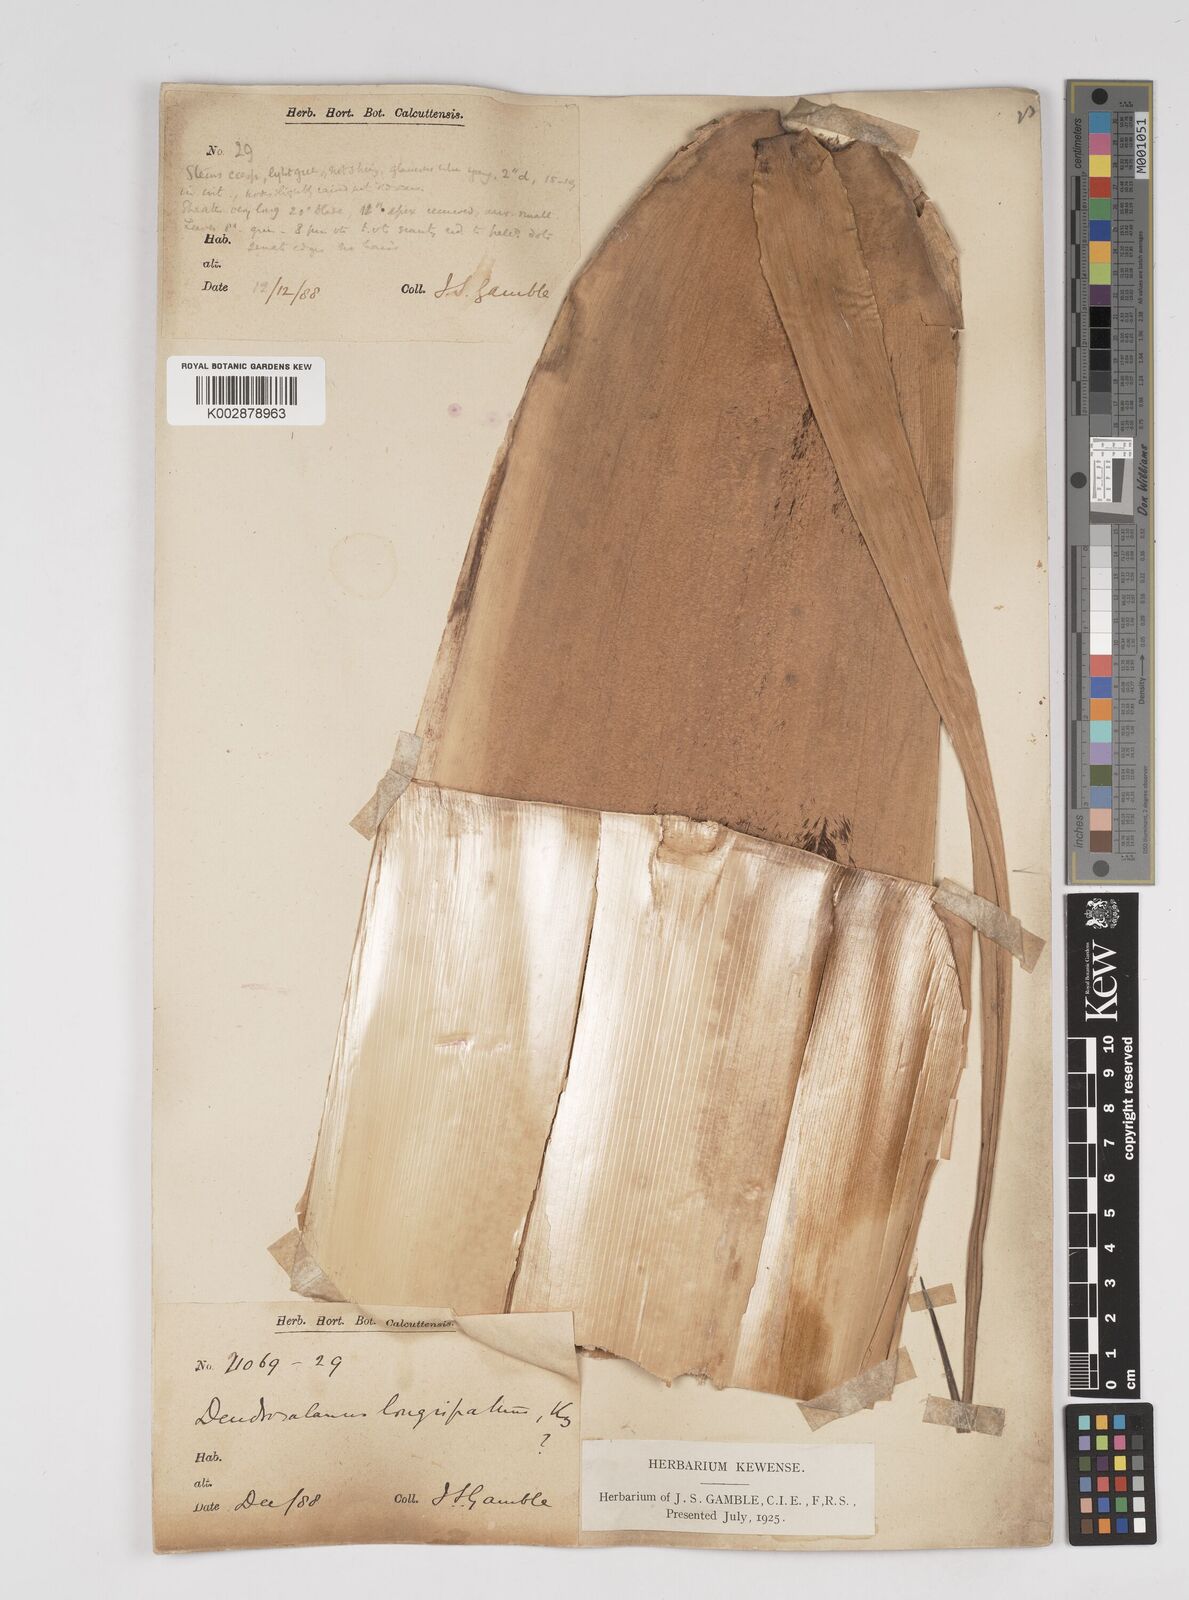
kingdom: Plantae
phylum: Tracheophyta
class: Liliopsida
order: Poales
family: Poaceae
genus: Dendrocalamus
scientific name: Dendrocalamus longispathus
